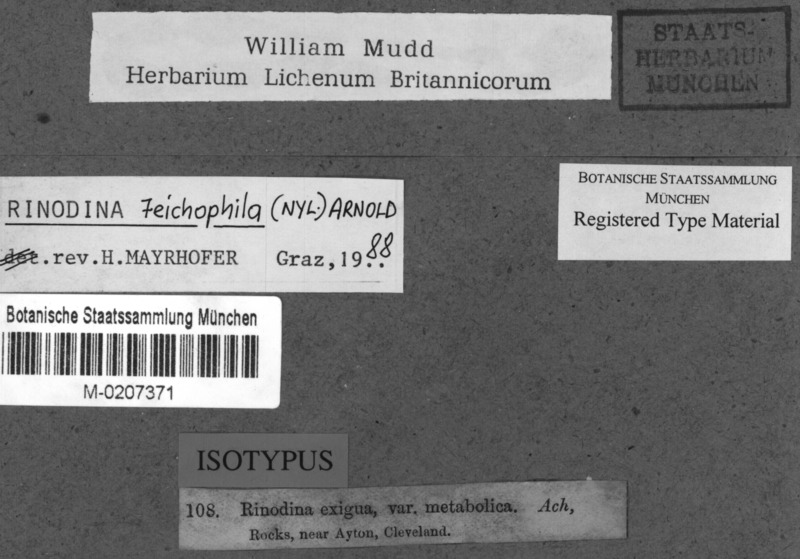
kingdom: Fungi
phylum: Ascomycota
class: Lecanoromycetes
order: Caliciales
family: Physciaceae
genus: Rinodina
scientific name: Rinodina teichophila
